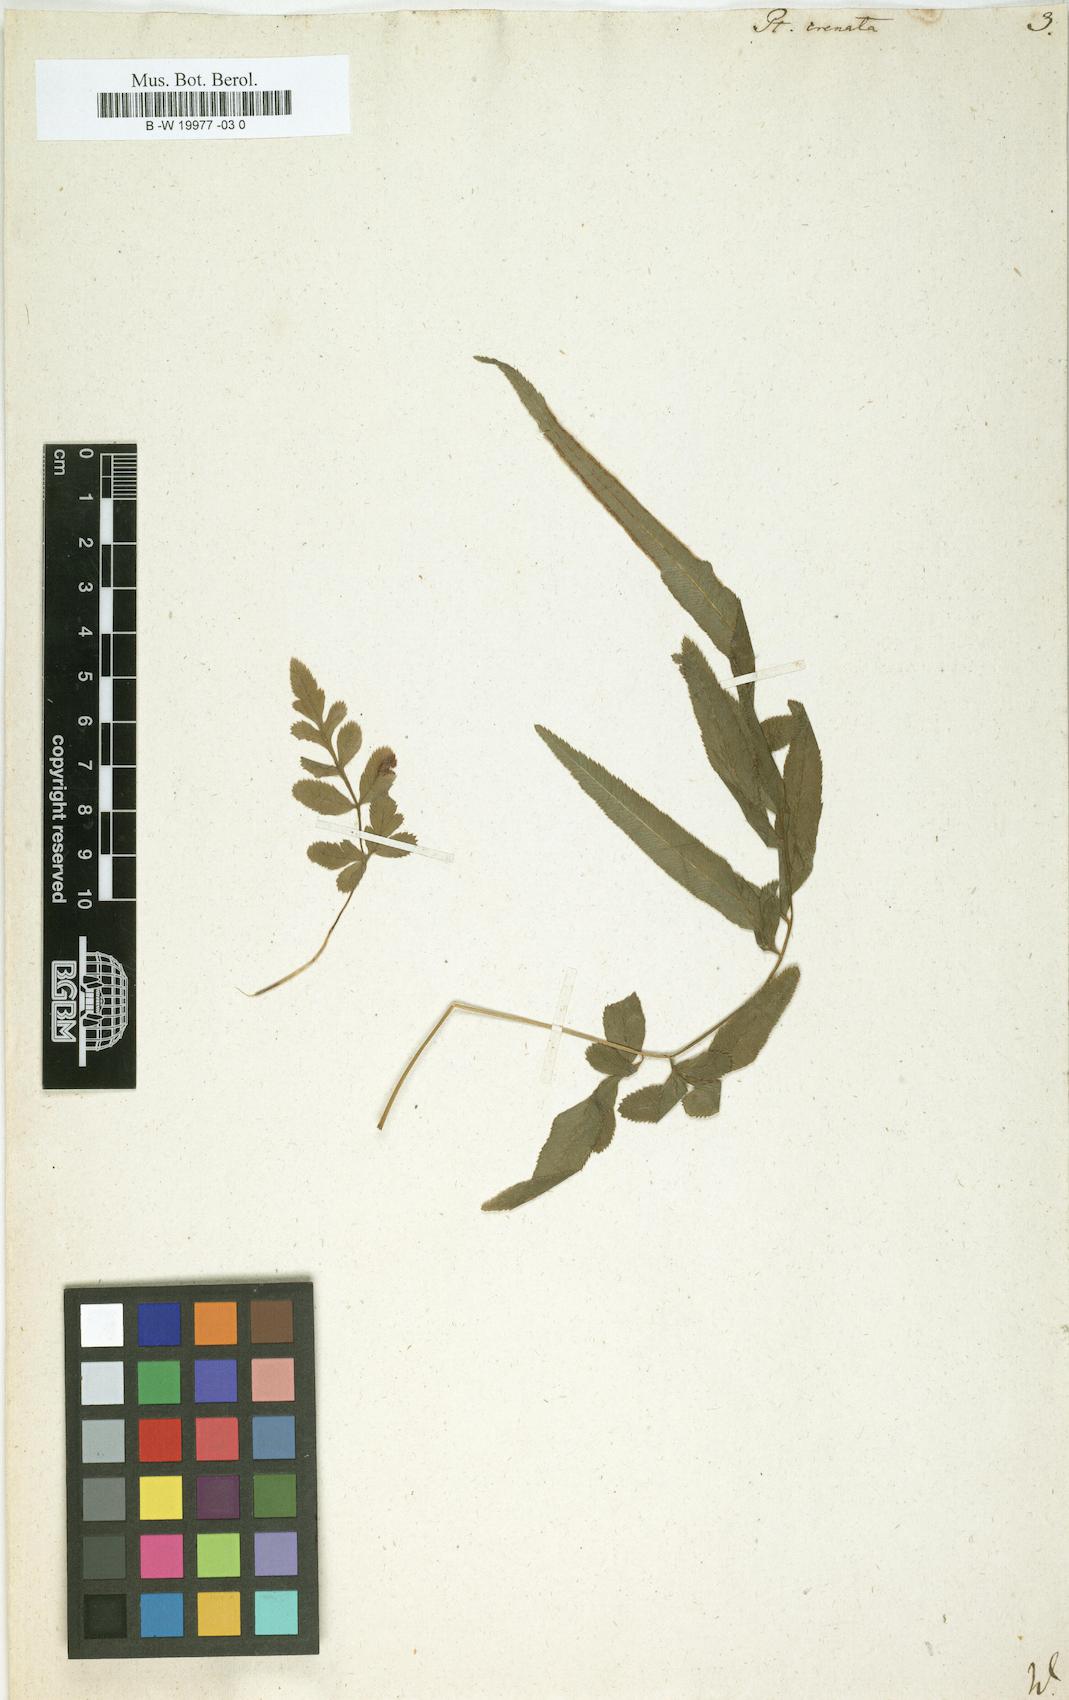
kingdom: Plantae
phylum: Tracheophyta
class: Polypodiopsida
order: Polypodiales
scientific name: Polypodiales
